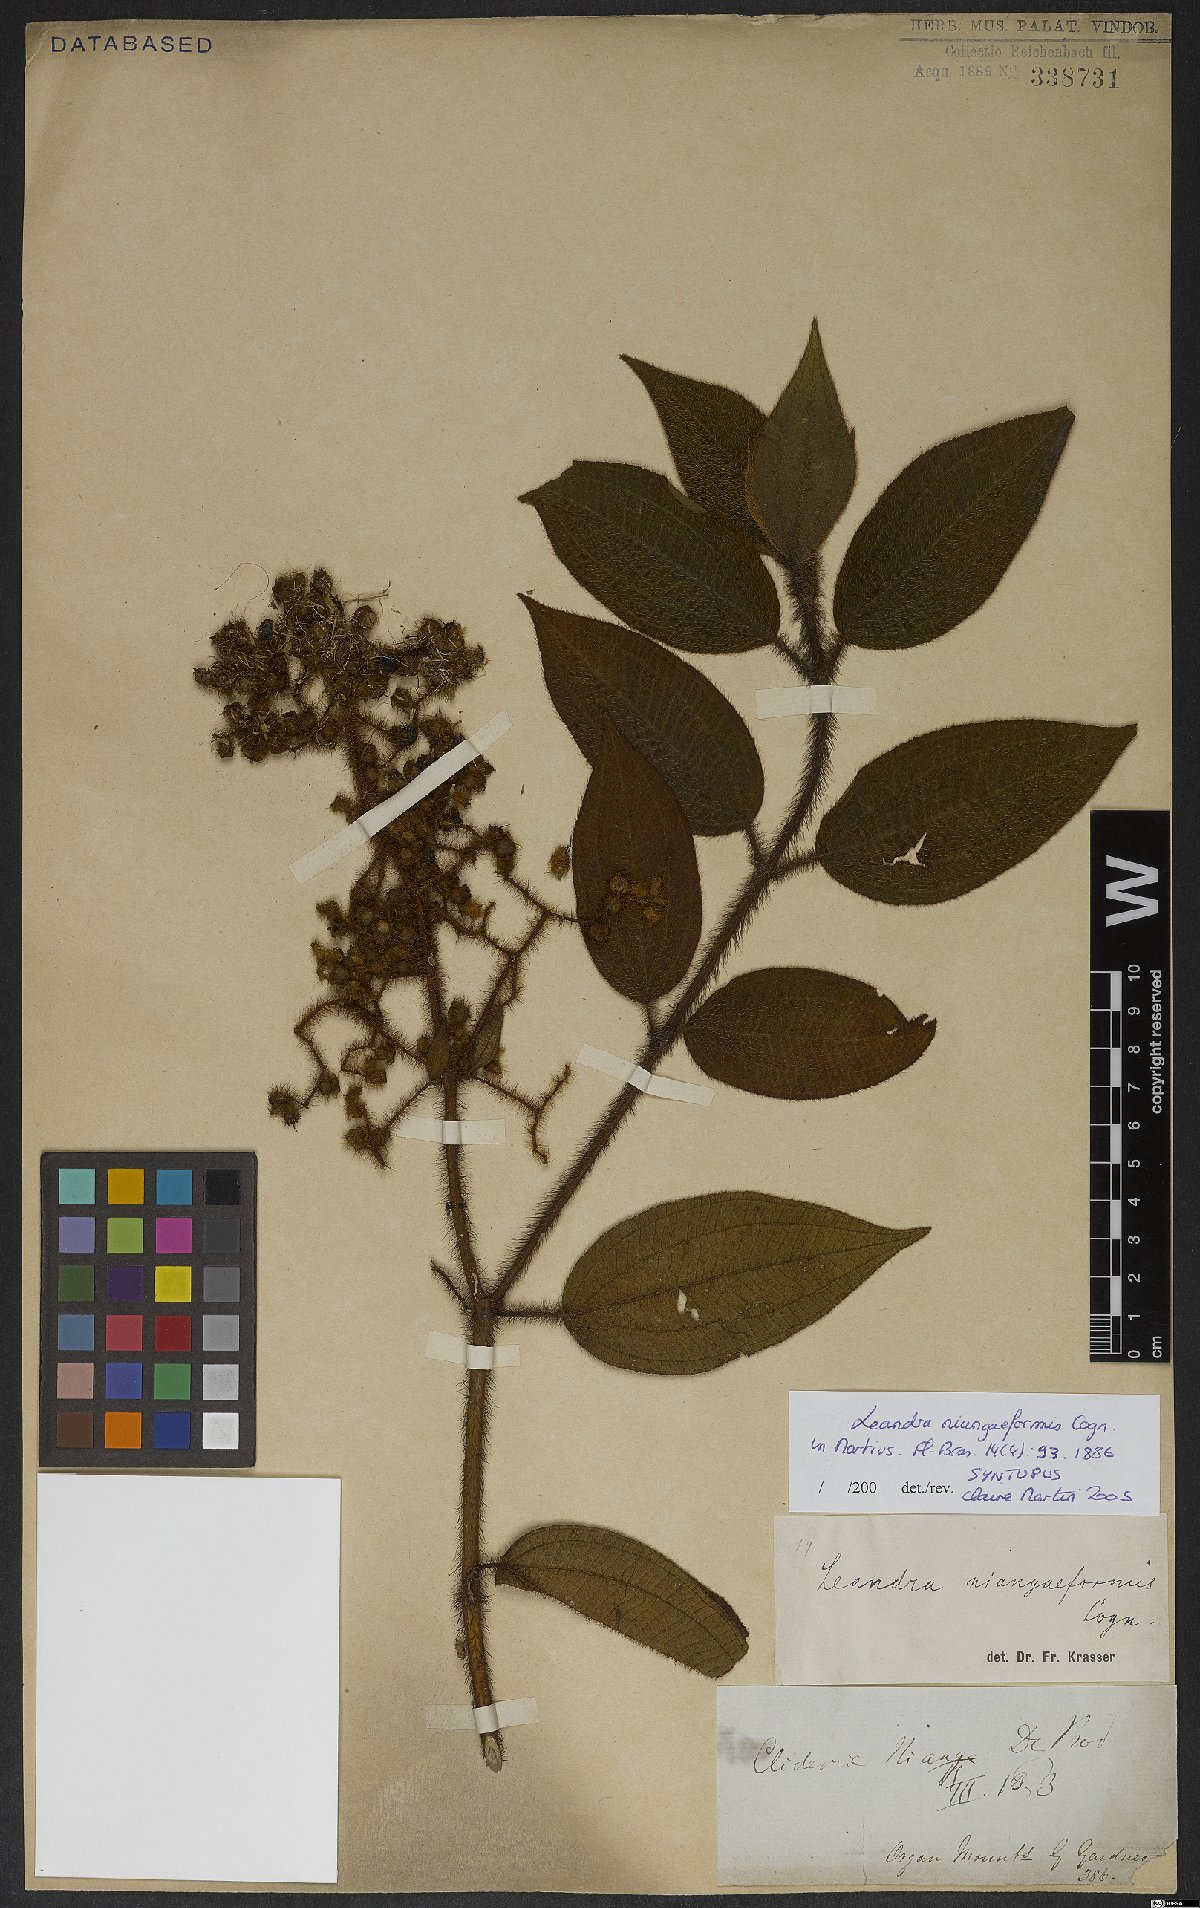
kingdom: Plantae
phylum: Tracheophyta
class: Magnoliopsida
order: Myrtales
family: Melastomataceae
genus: Miconia
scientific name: Miconia niangaeformis
